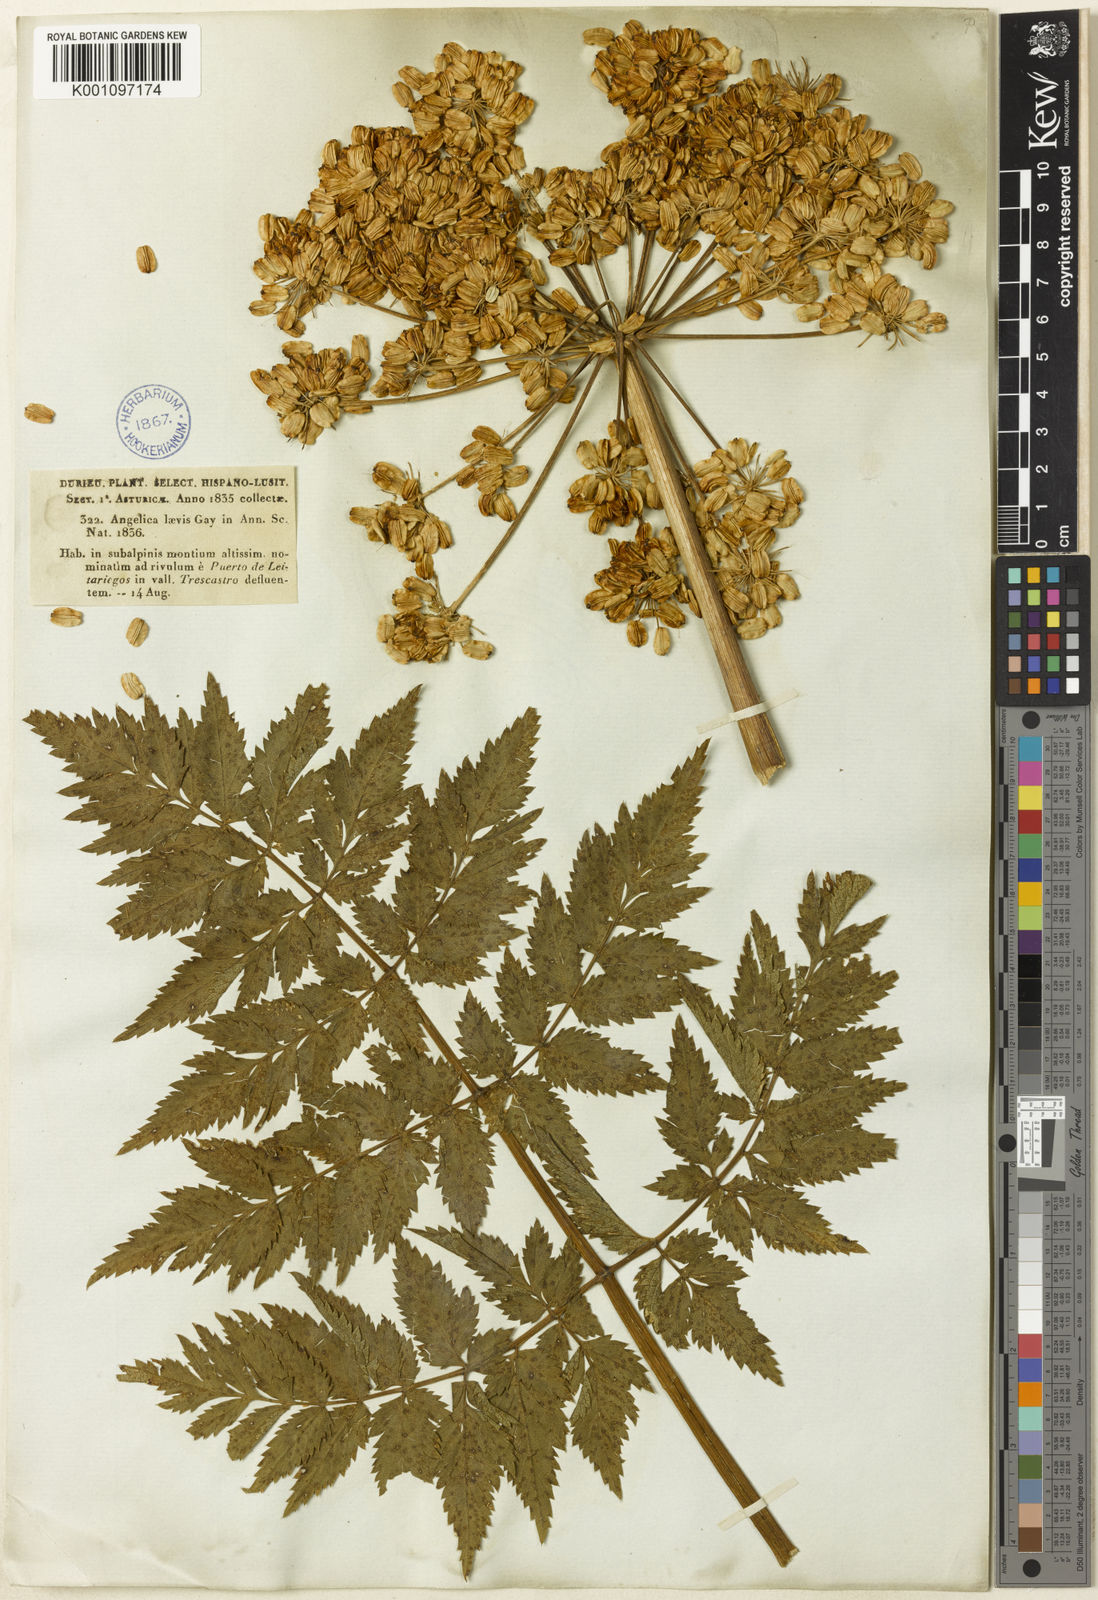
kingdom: Plantae
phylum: Tracheophyta
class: Magnoliopsida
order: Apiales
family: Apiaceae
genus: Angelica
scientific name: Angelica
